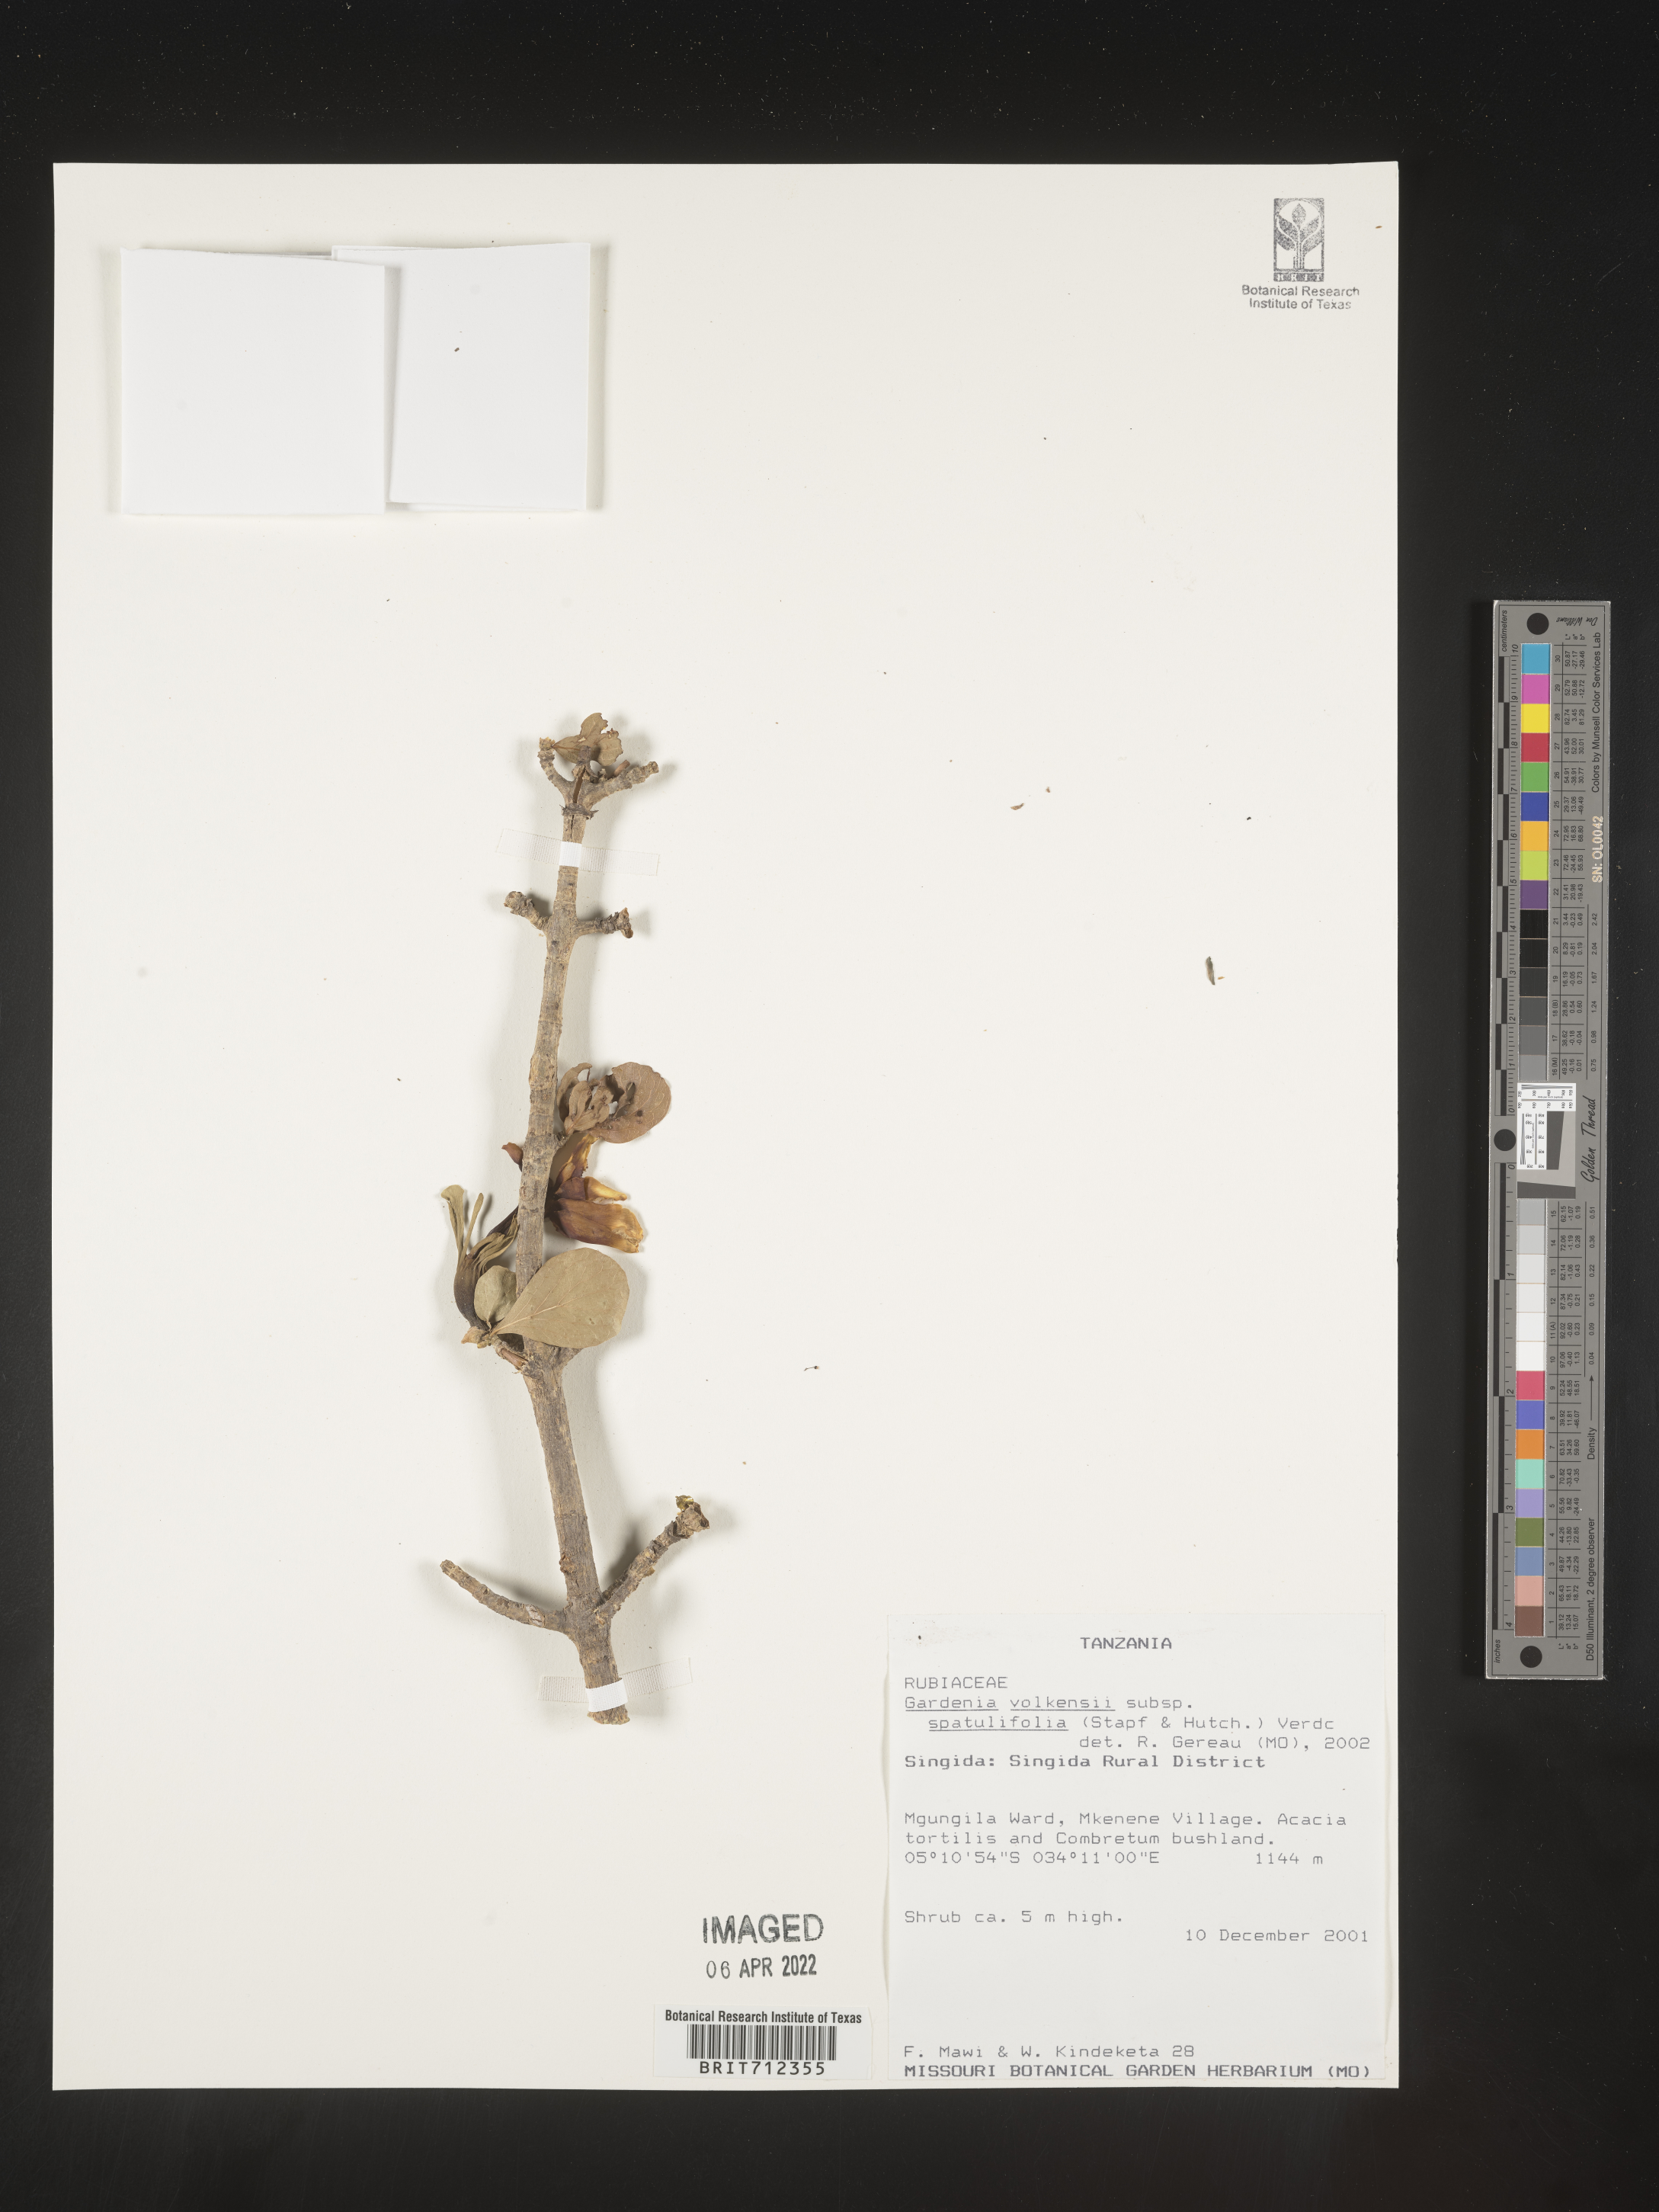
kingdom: Plantae
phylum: Tracheophyta
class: Magnoliopsida
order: Gentianales
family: Rubiaceae
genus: Gardenia
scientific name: Gardenia
